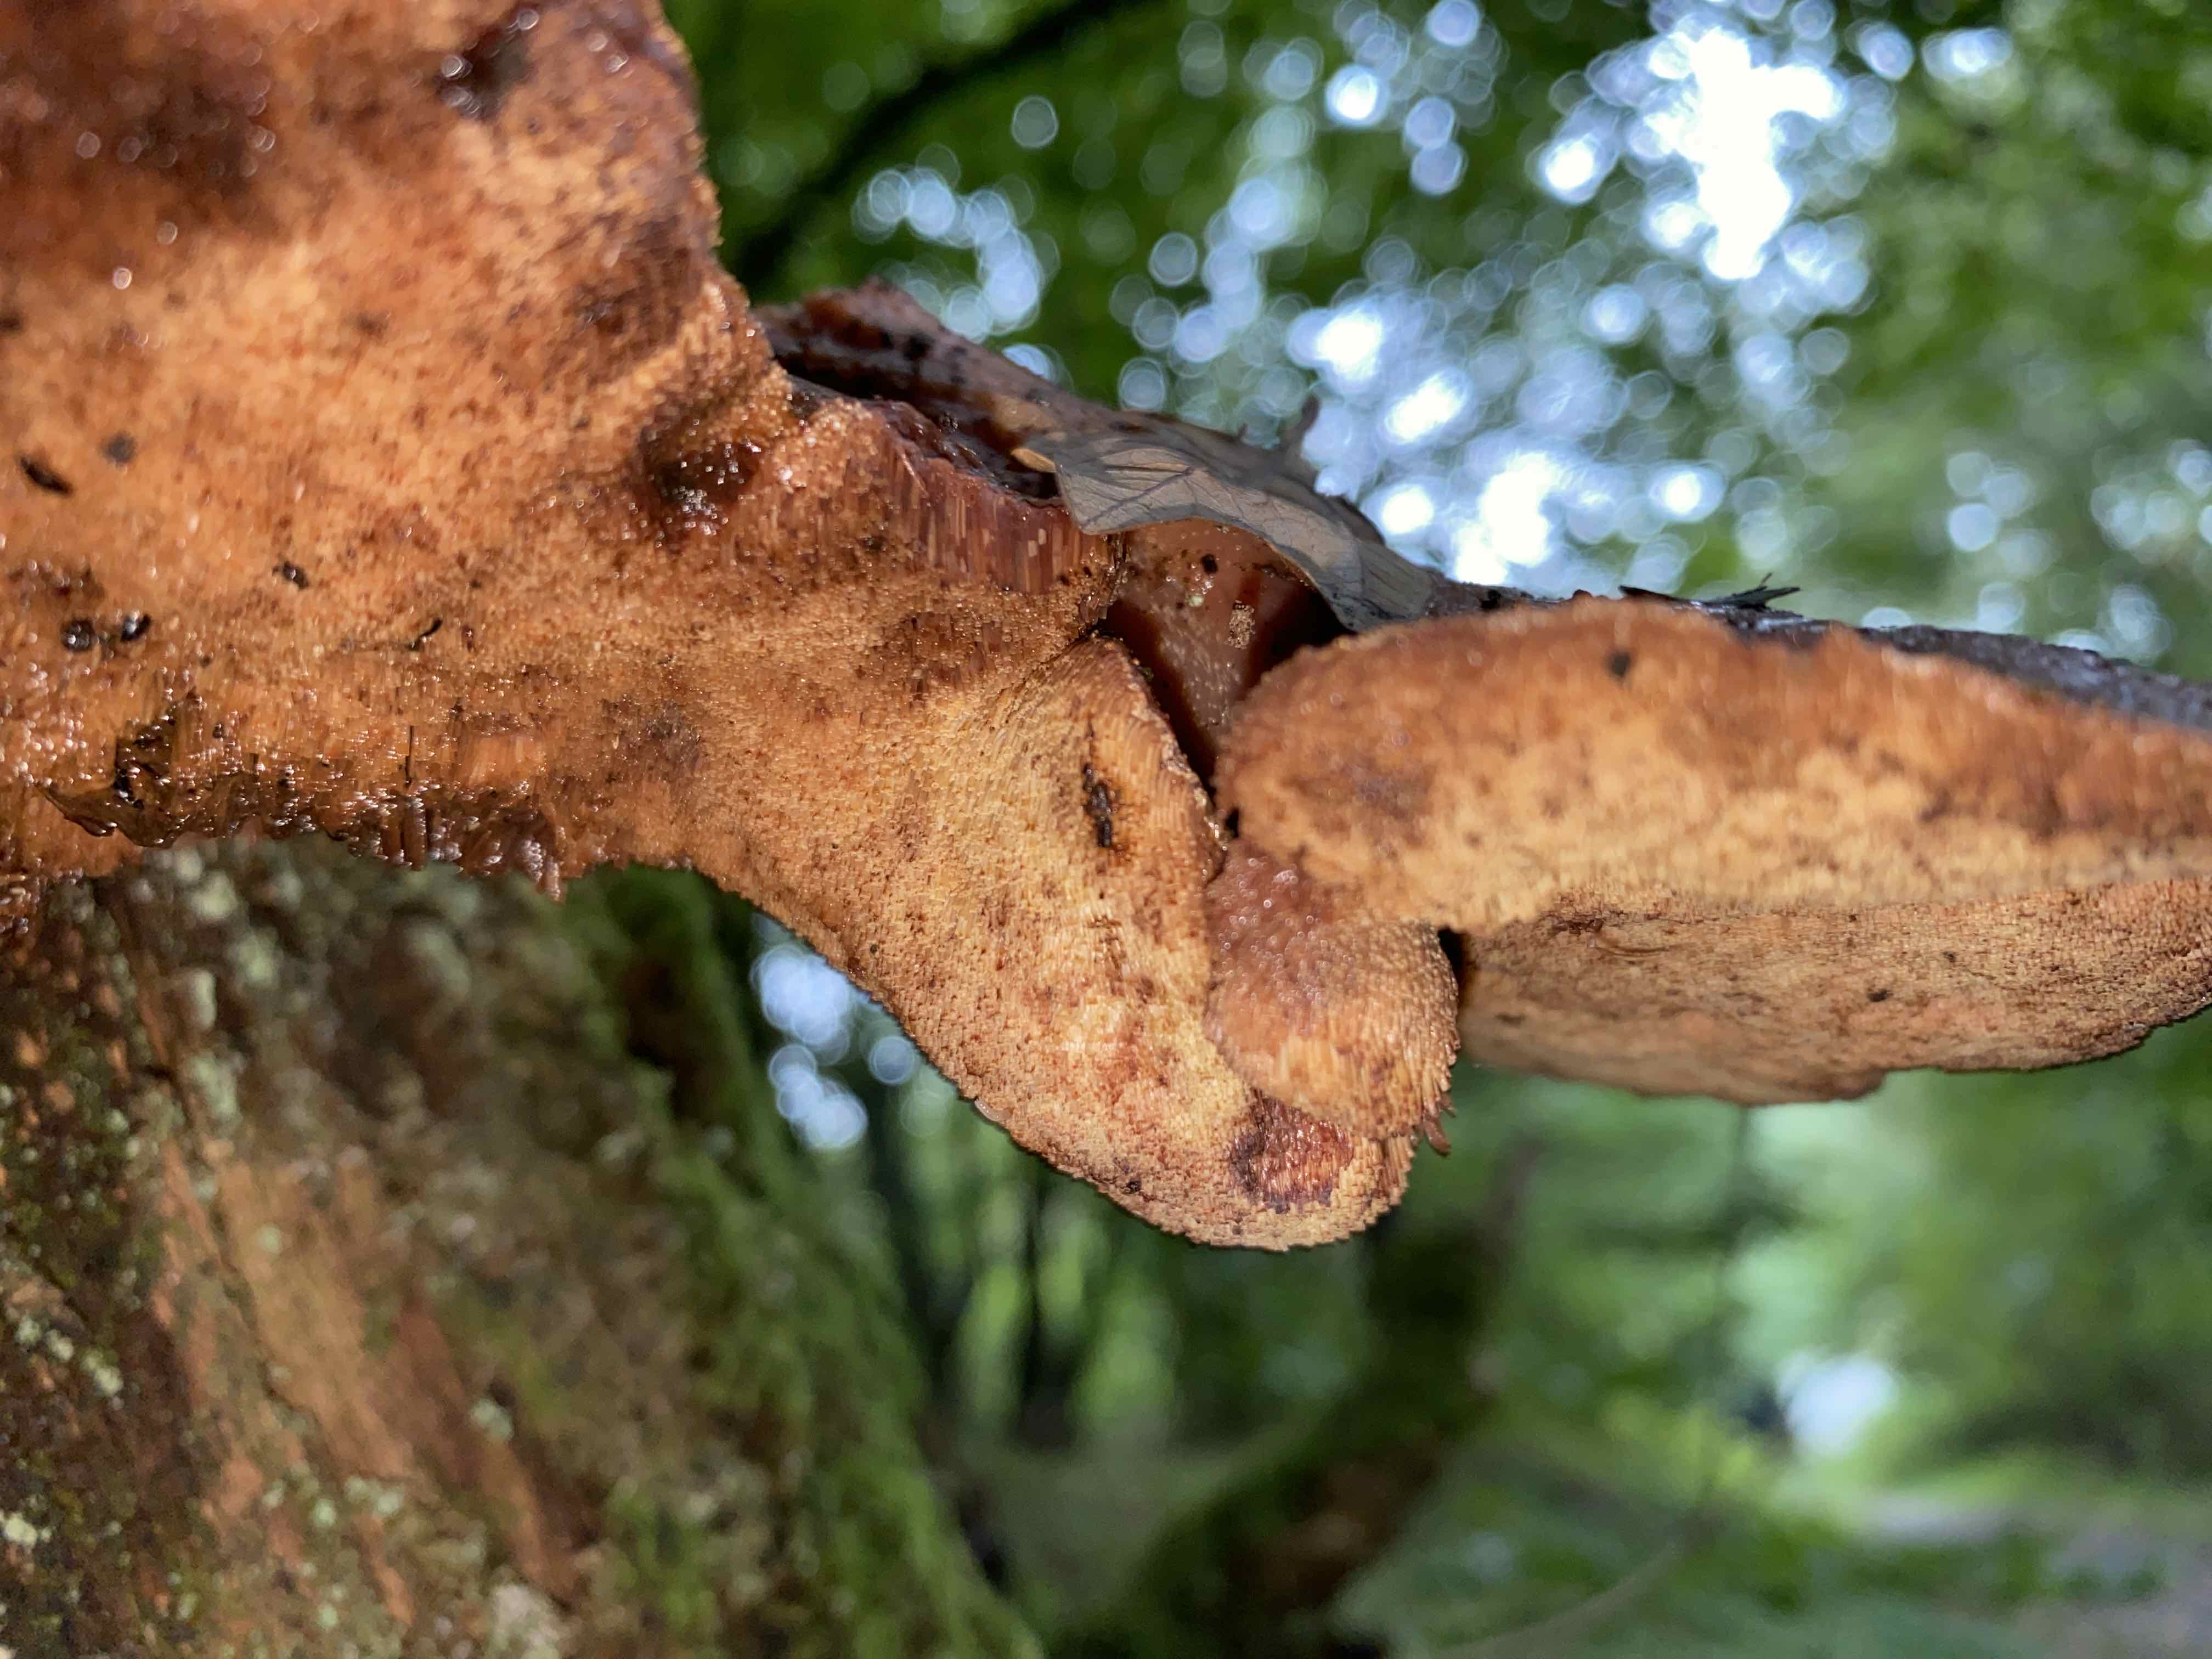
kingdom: Fungi
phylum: Basidiomycota
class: Agaricomycetes
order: Agaricales
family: Fistulinaceae
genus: Fistulina
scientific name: Fistulina hepatica
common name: oksetunge
